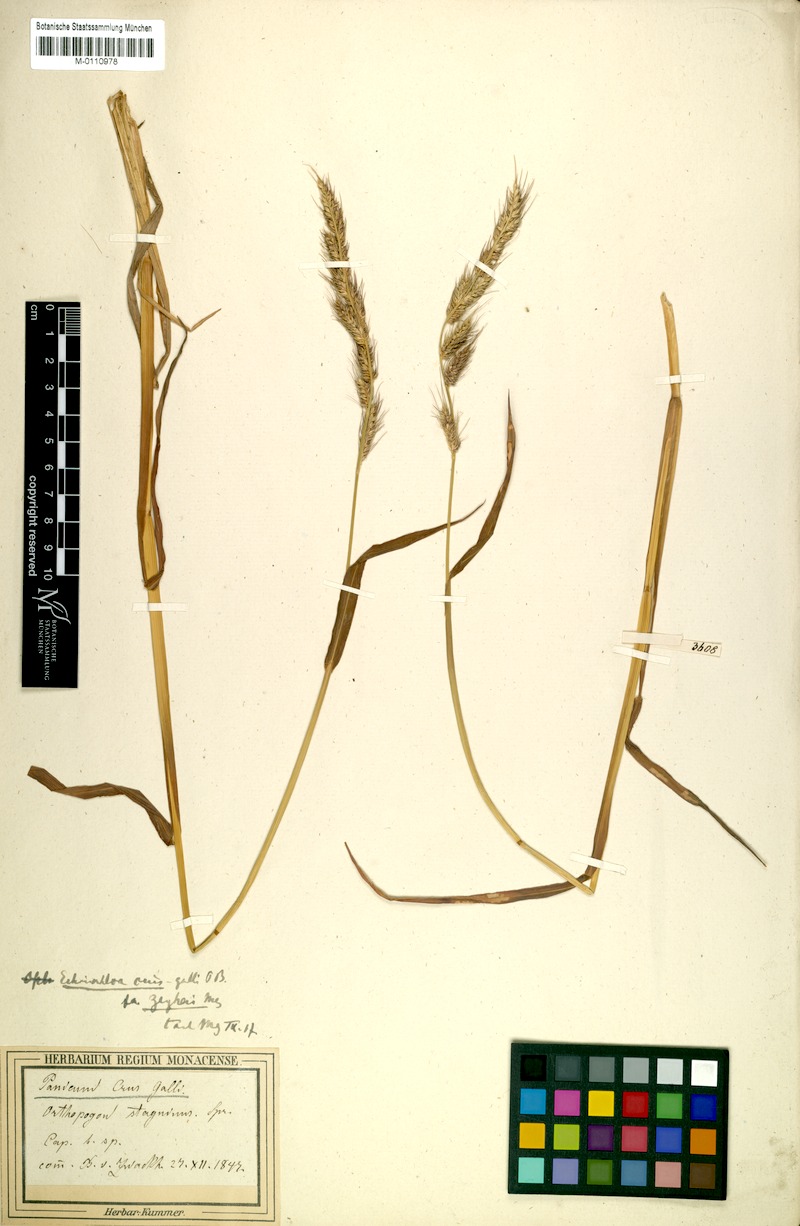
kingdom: Plantae
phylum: Tracheophyta
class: Liliopsida
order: Poales
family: Poaceae
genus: Echinochloa
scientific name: Echinochloa crus-gallii
